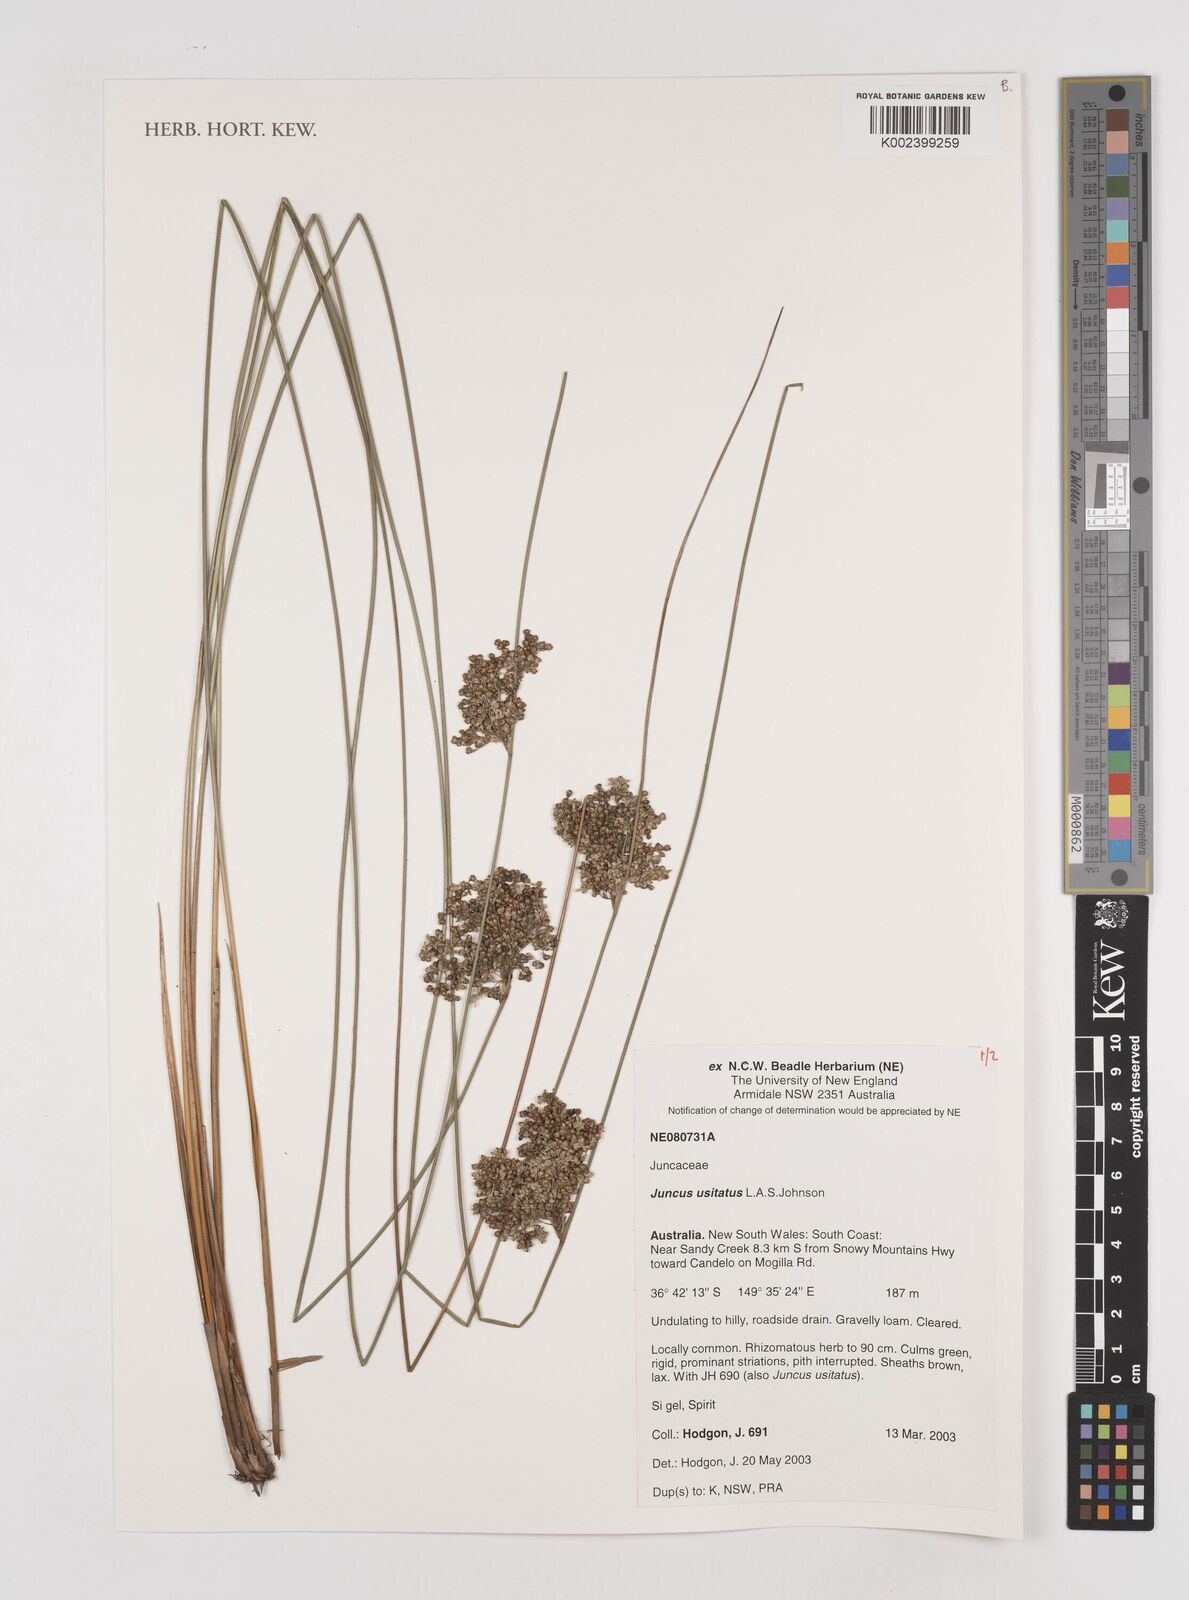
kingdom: Plantae
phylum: Tracheophyta
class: Liliopsida
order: Poales
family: Juncaceae
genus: Juncus
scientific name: Juncus usitatus
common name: Rush
